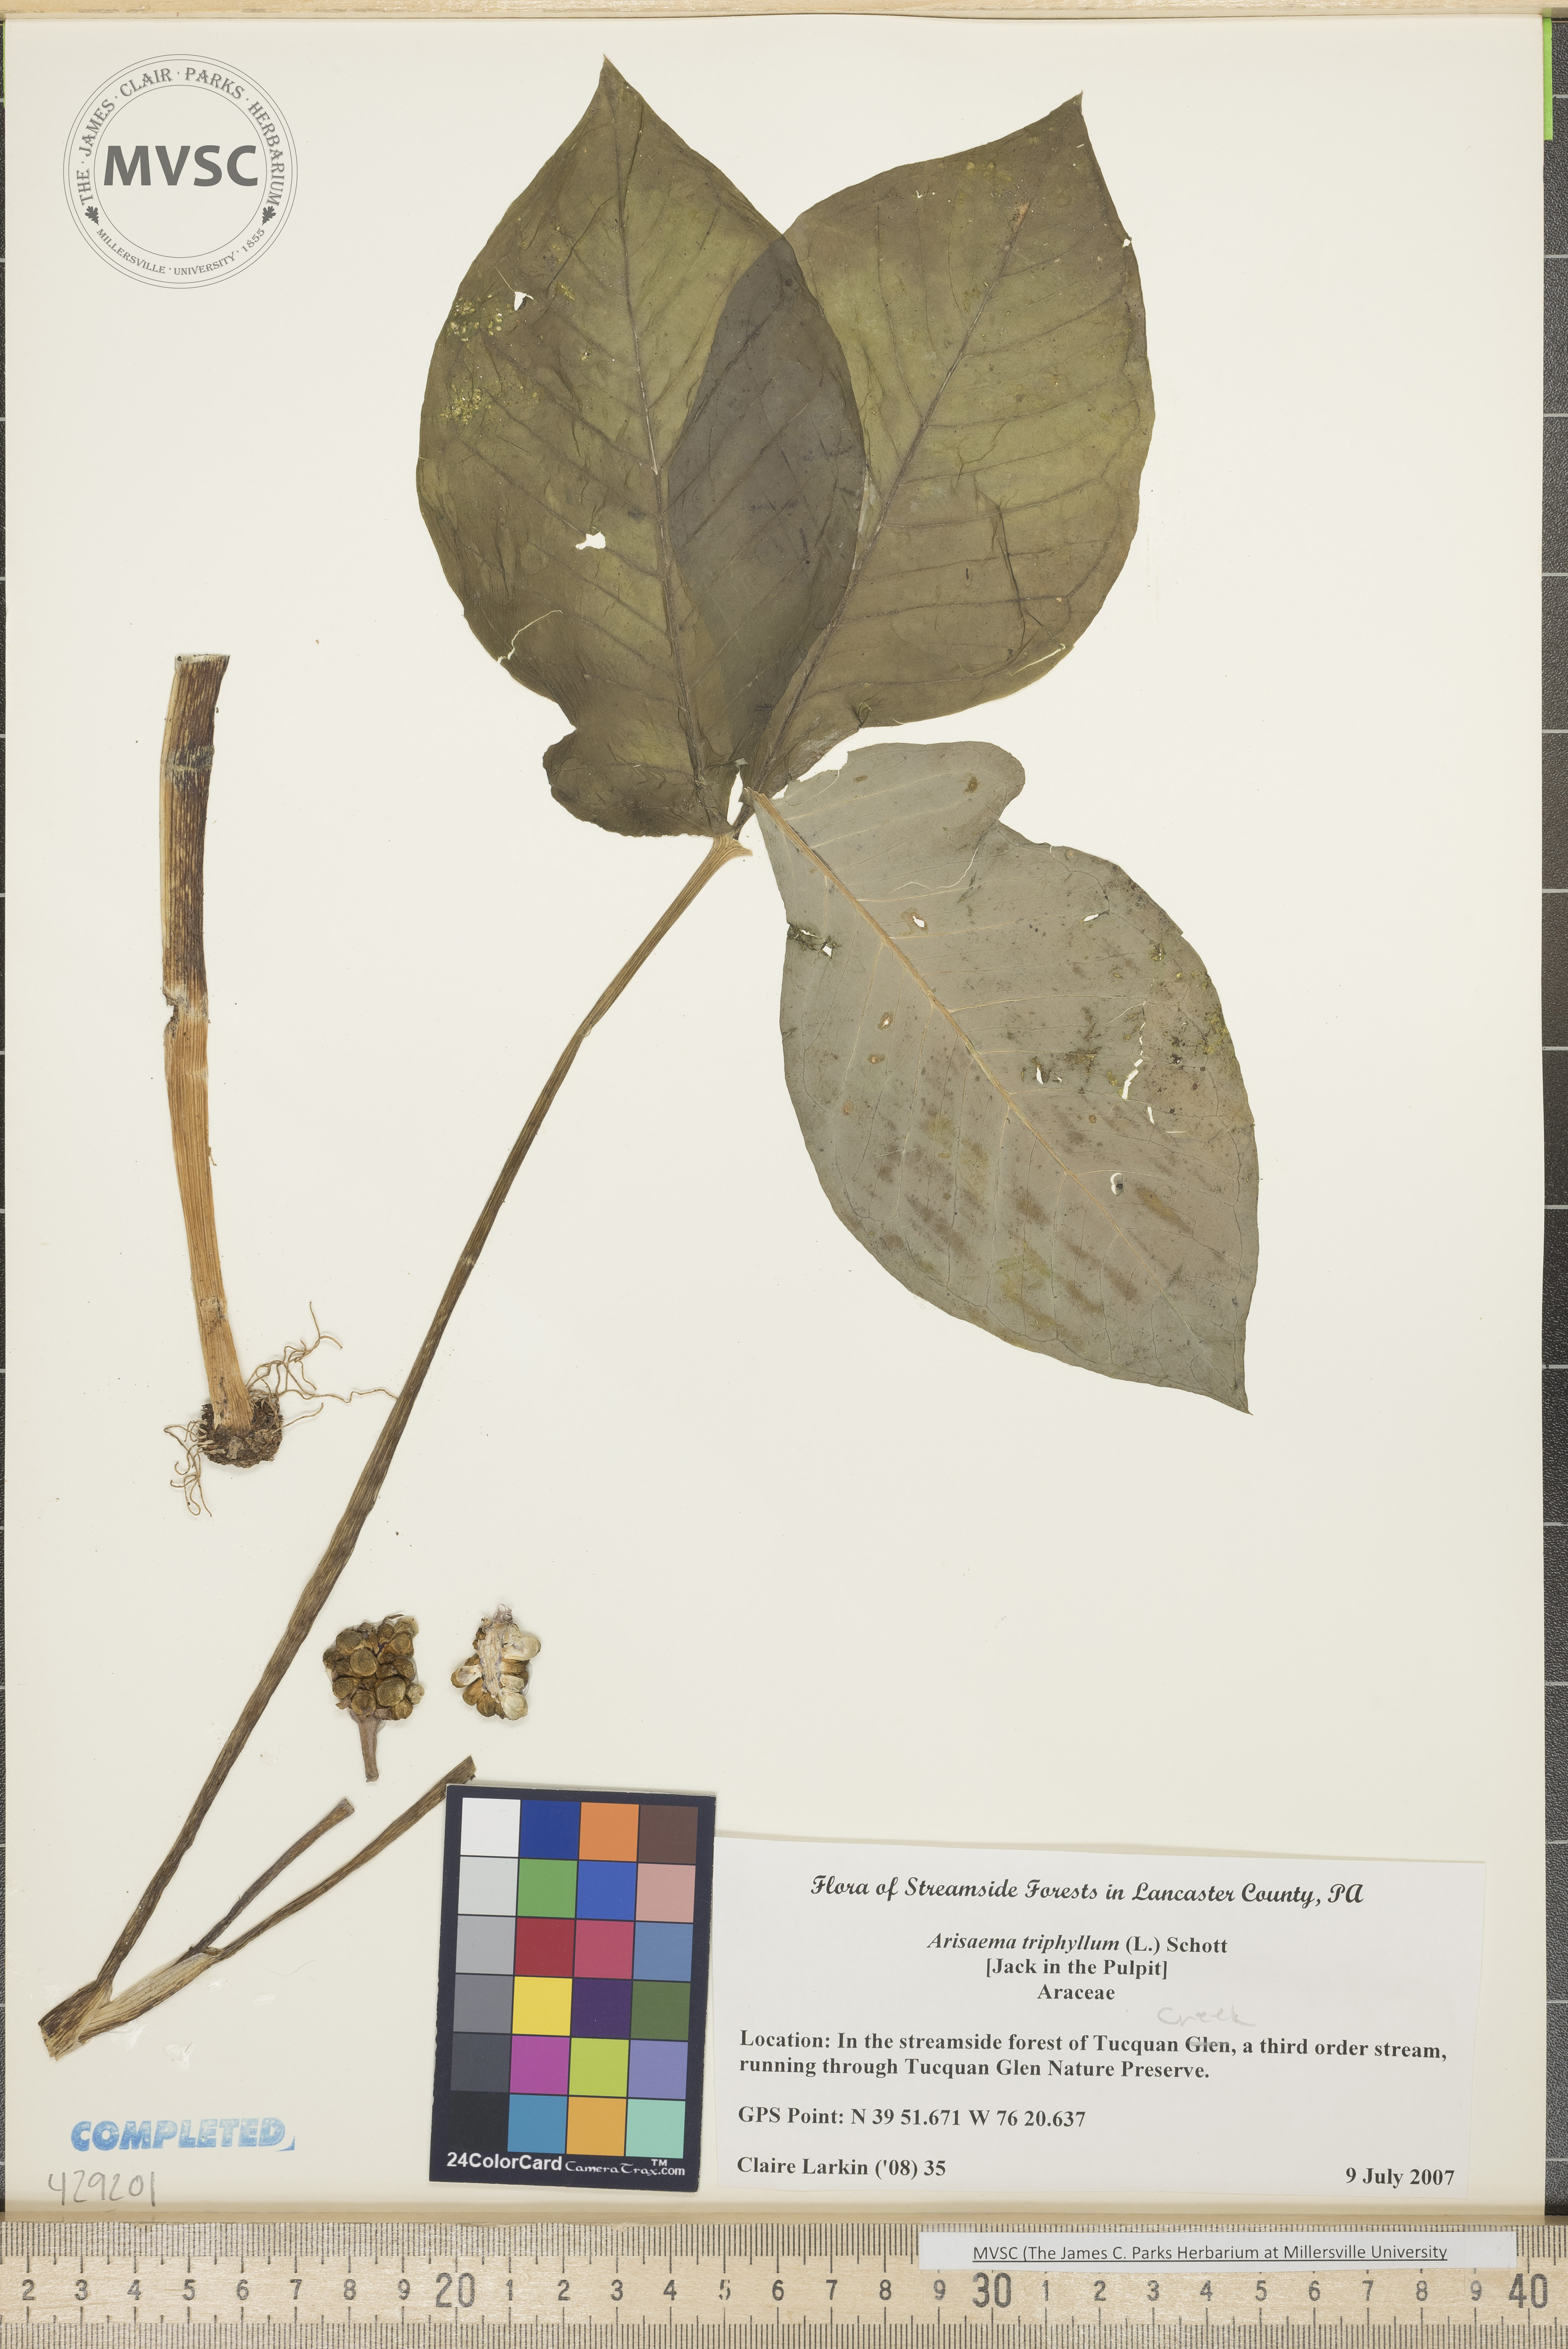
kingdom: Plantae
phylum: Tracheophyta
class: Liliopsida
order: Alismatales
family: Araceae
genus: Arisaema
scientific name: Arisaema triphyllum
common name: Jack in the pulpit
